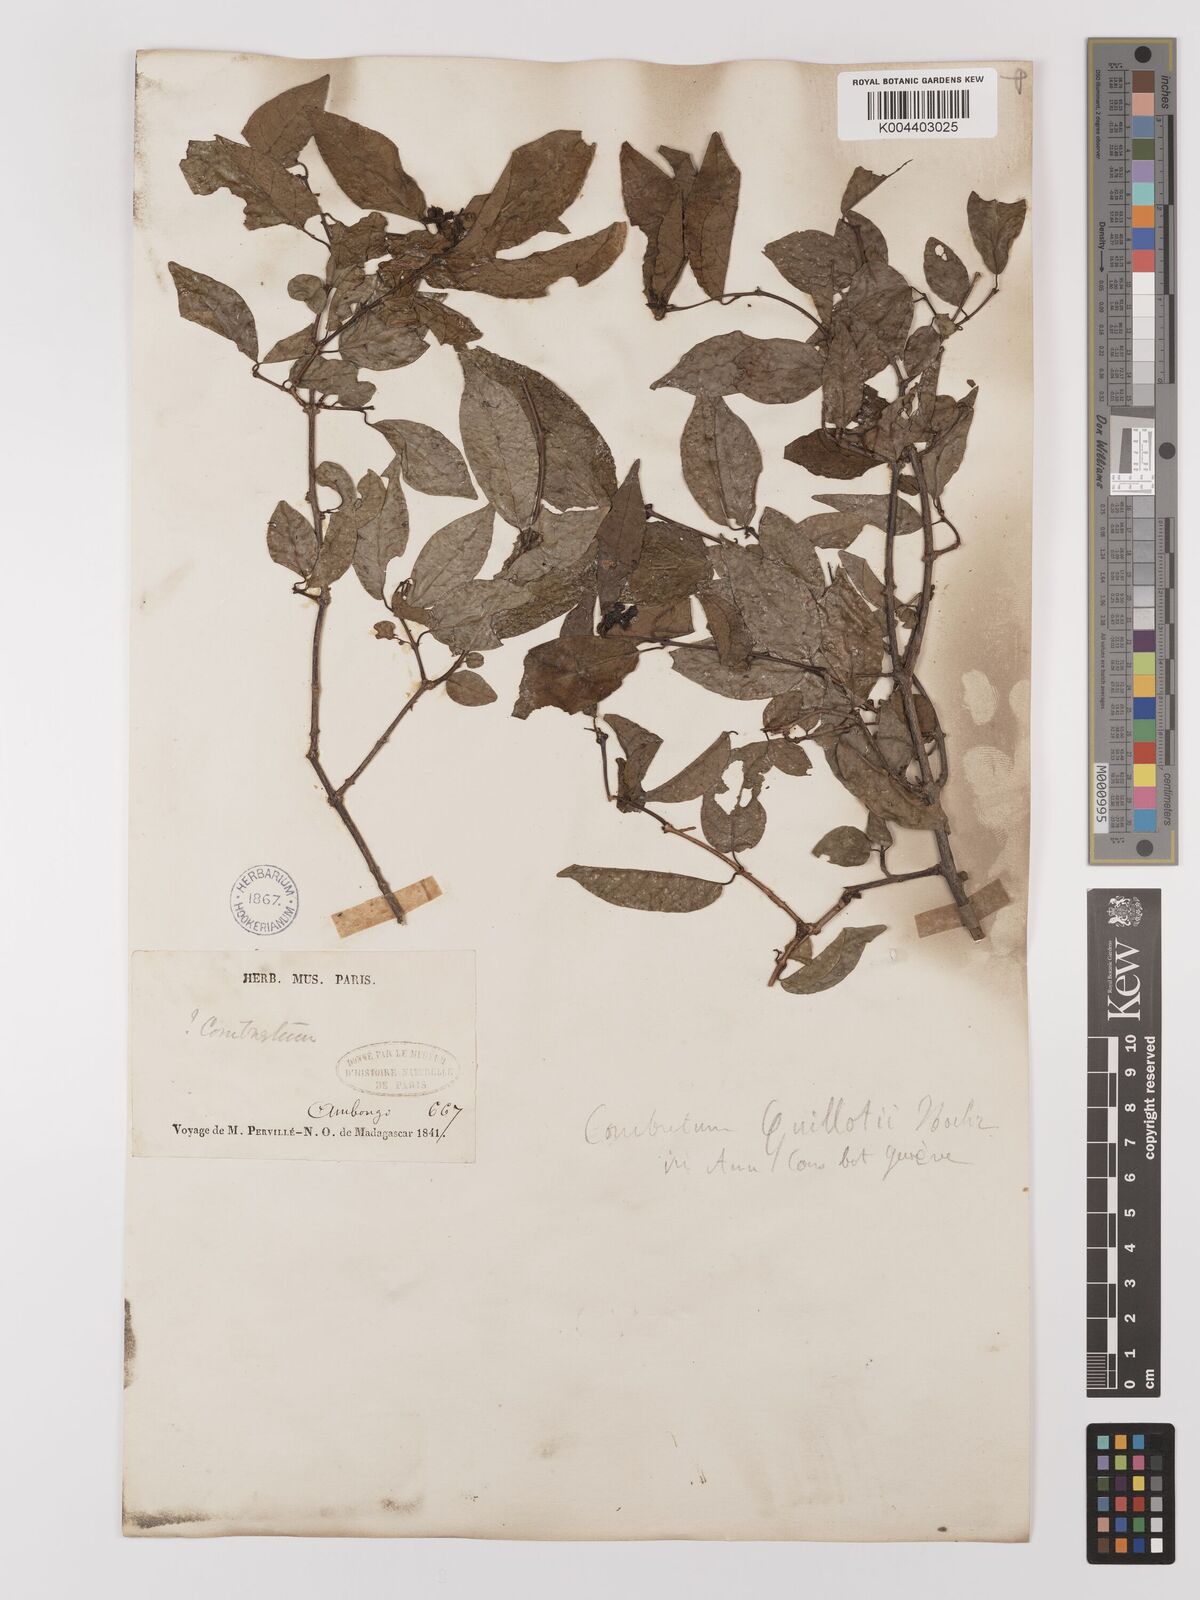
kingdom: Plantae
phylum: Tracheophyta
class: Magnoliopsida
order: Myrtales
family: Combretaceae
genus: Combretum
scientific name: Combretum
